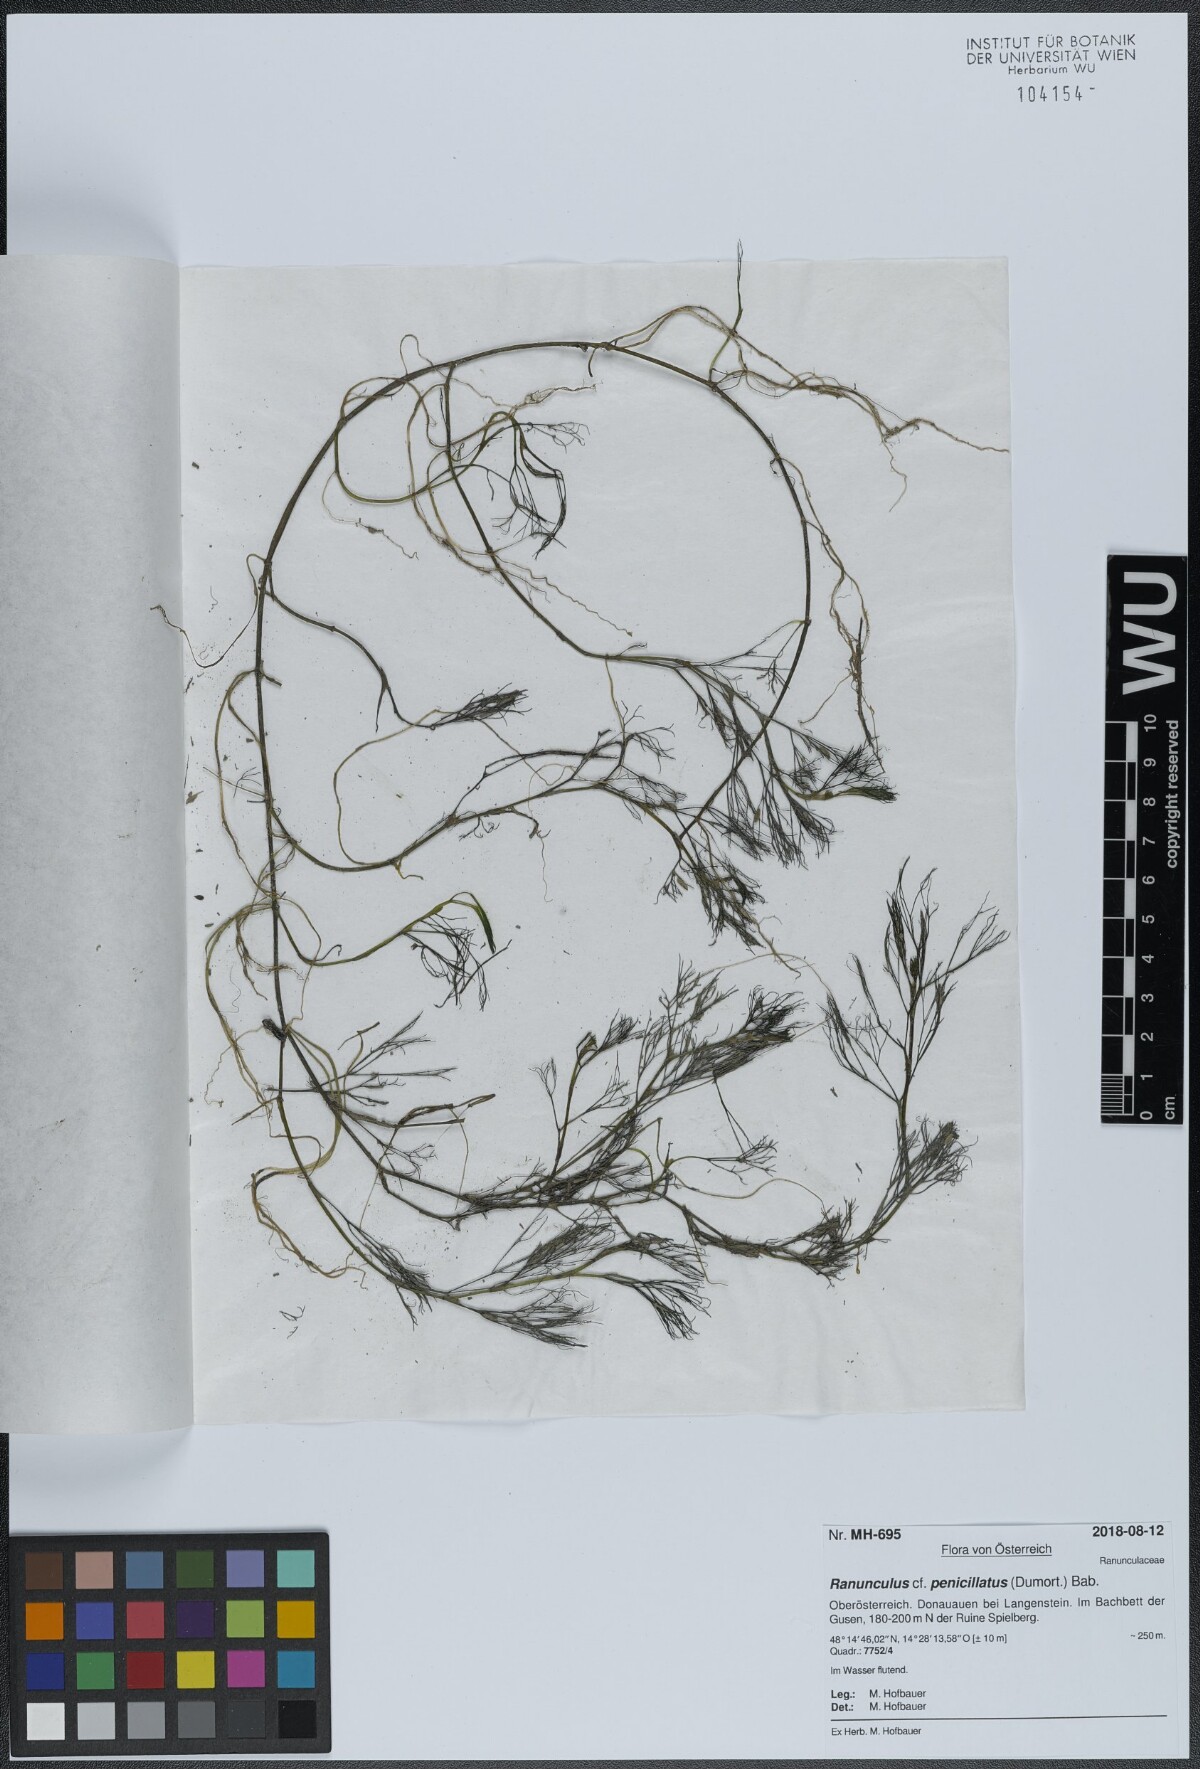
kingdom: Plantae
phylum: Tracheophyta
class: Magnoliopsida
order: Ranunculales
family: Ranunculaceae
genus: Ranunculus
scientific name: Ranunculus penicillatus
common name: Stream water-crowfoot
